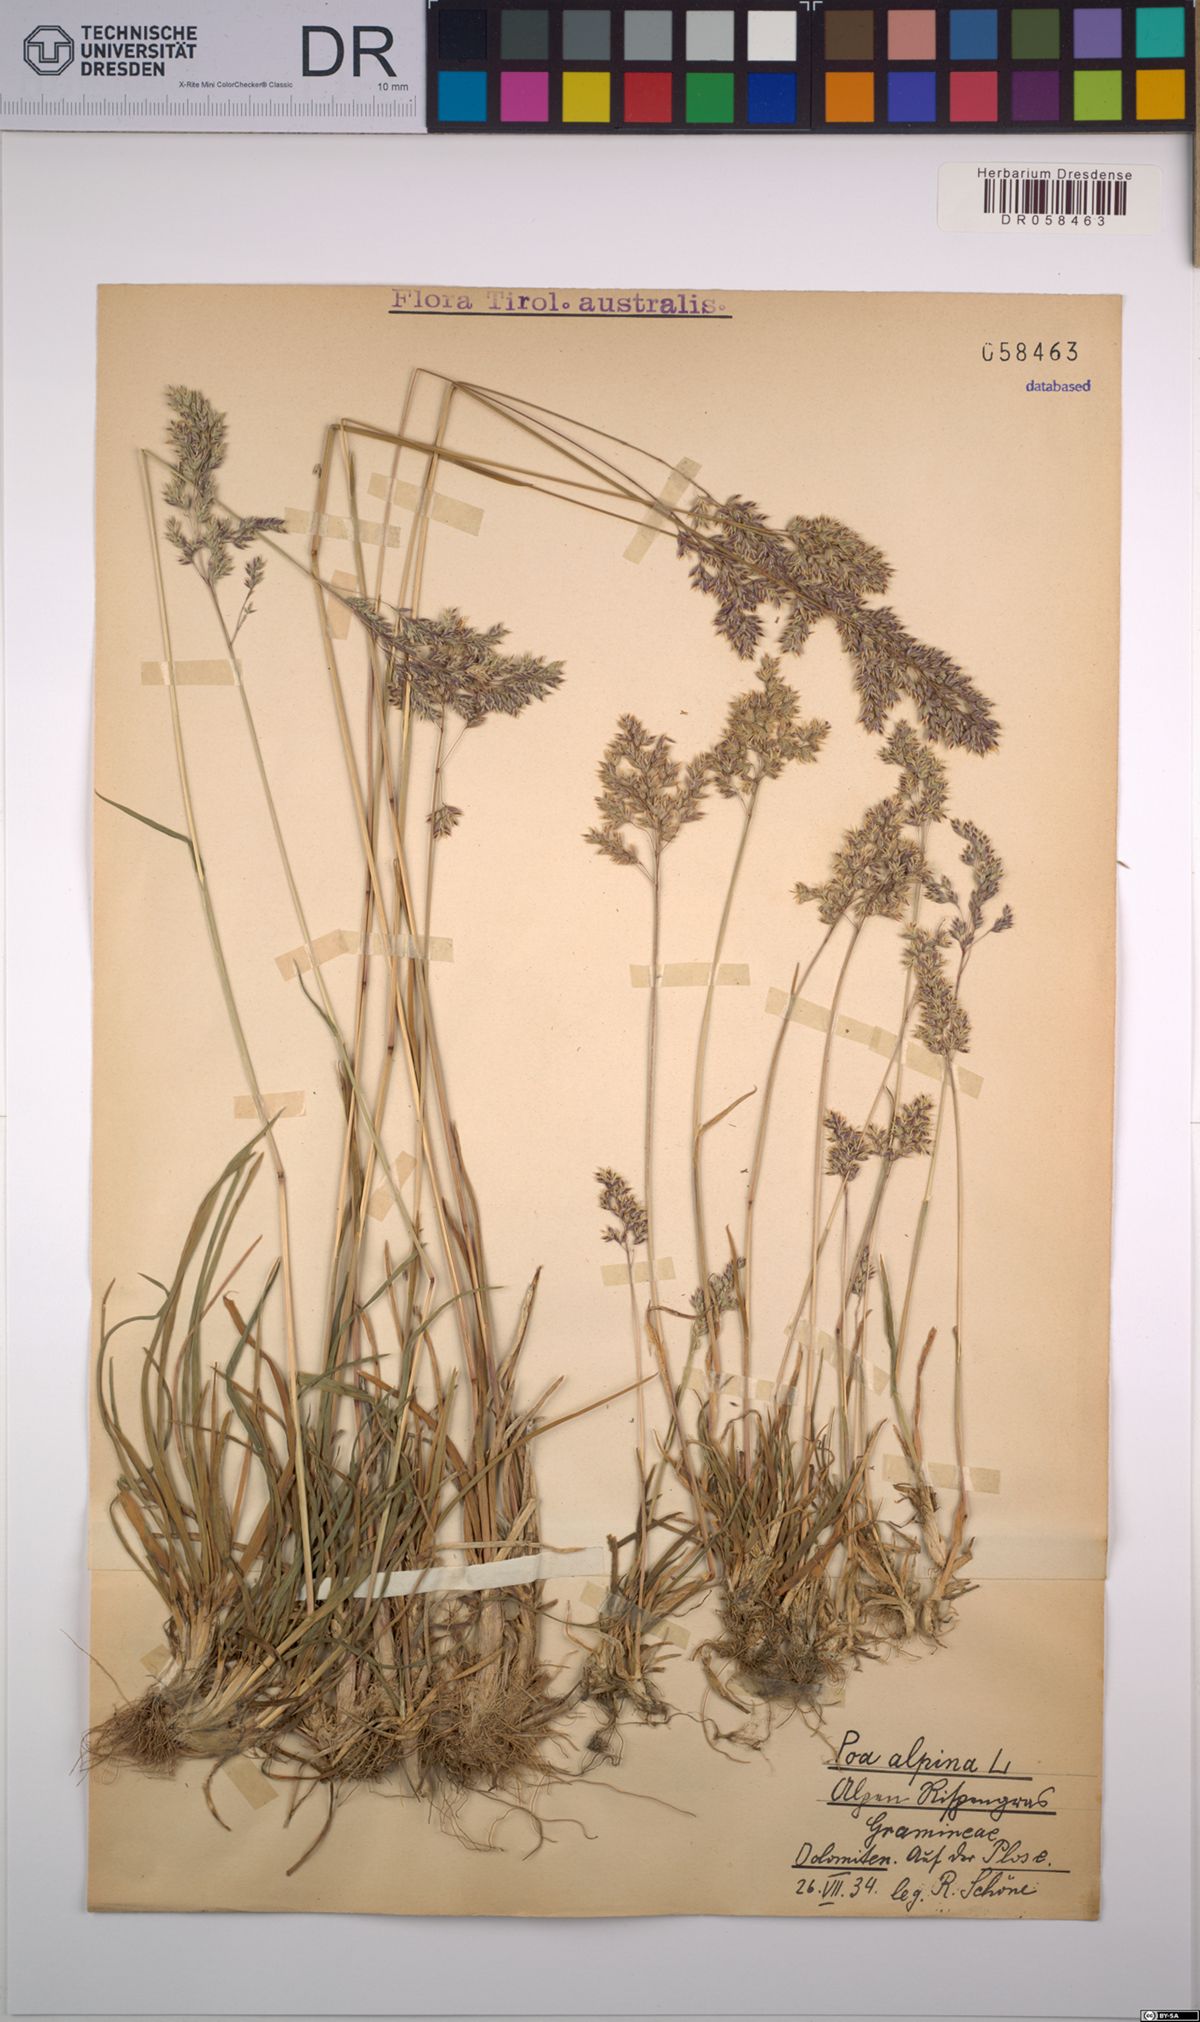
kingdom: Plantae
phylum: Tracheophyta
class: Liliopsida
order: Poales
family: Poaceae
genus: Poa
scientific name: Poa alpina
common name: Alpine bluegrass
